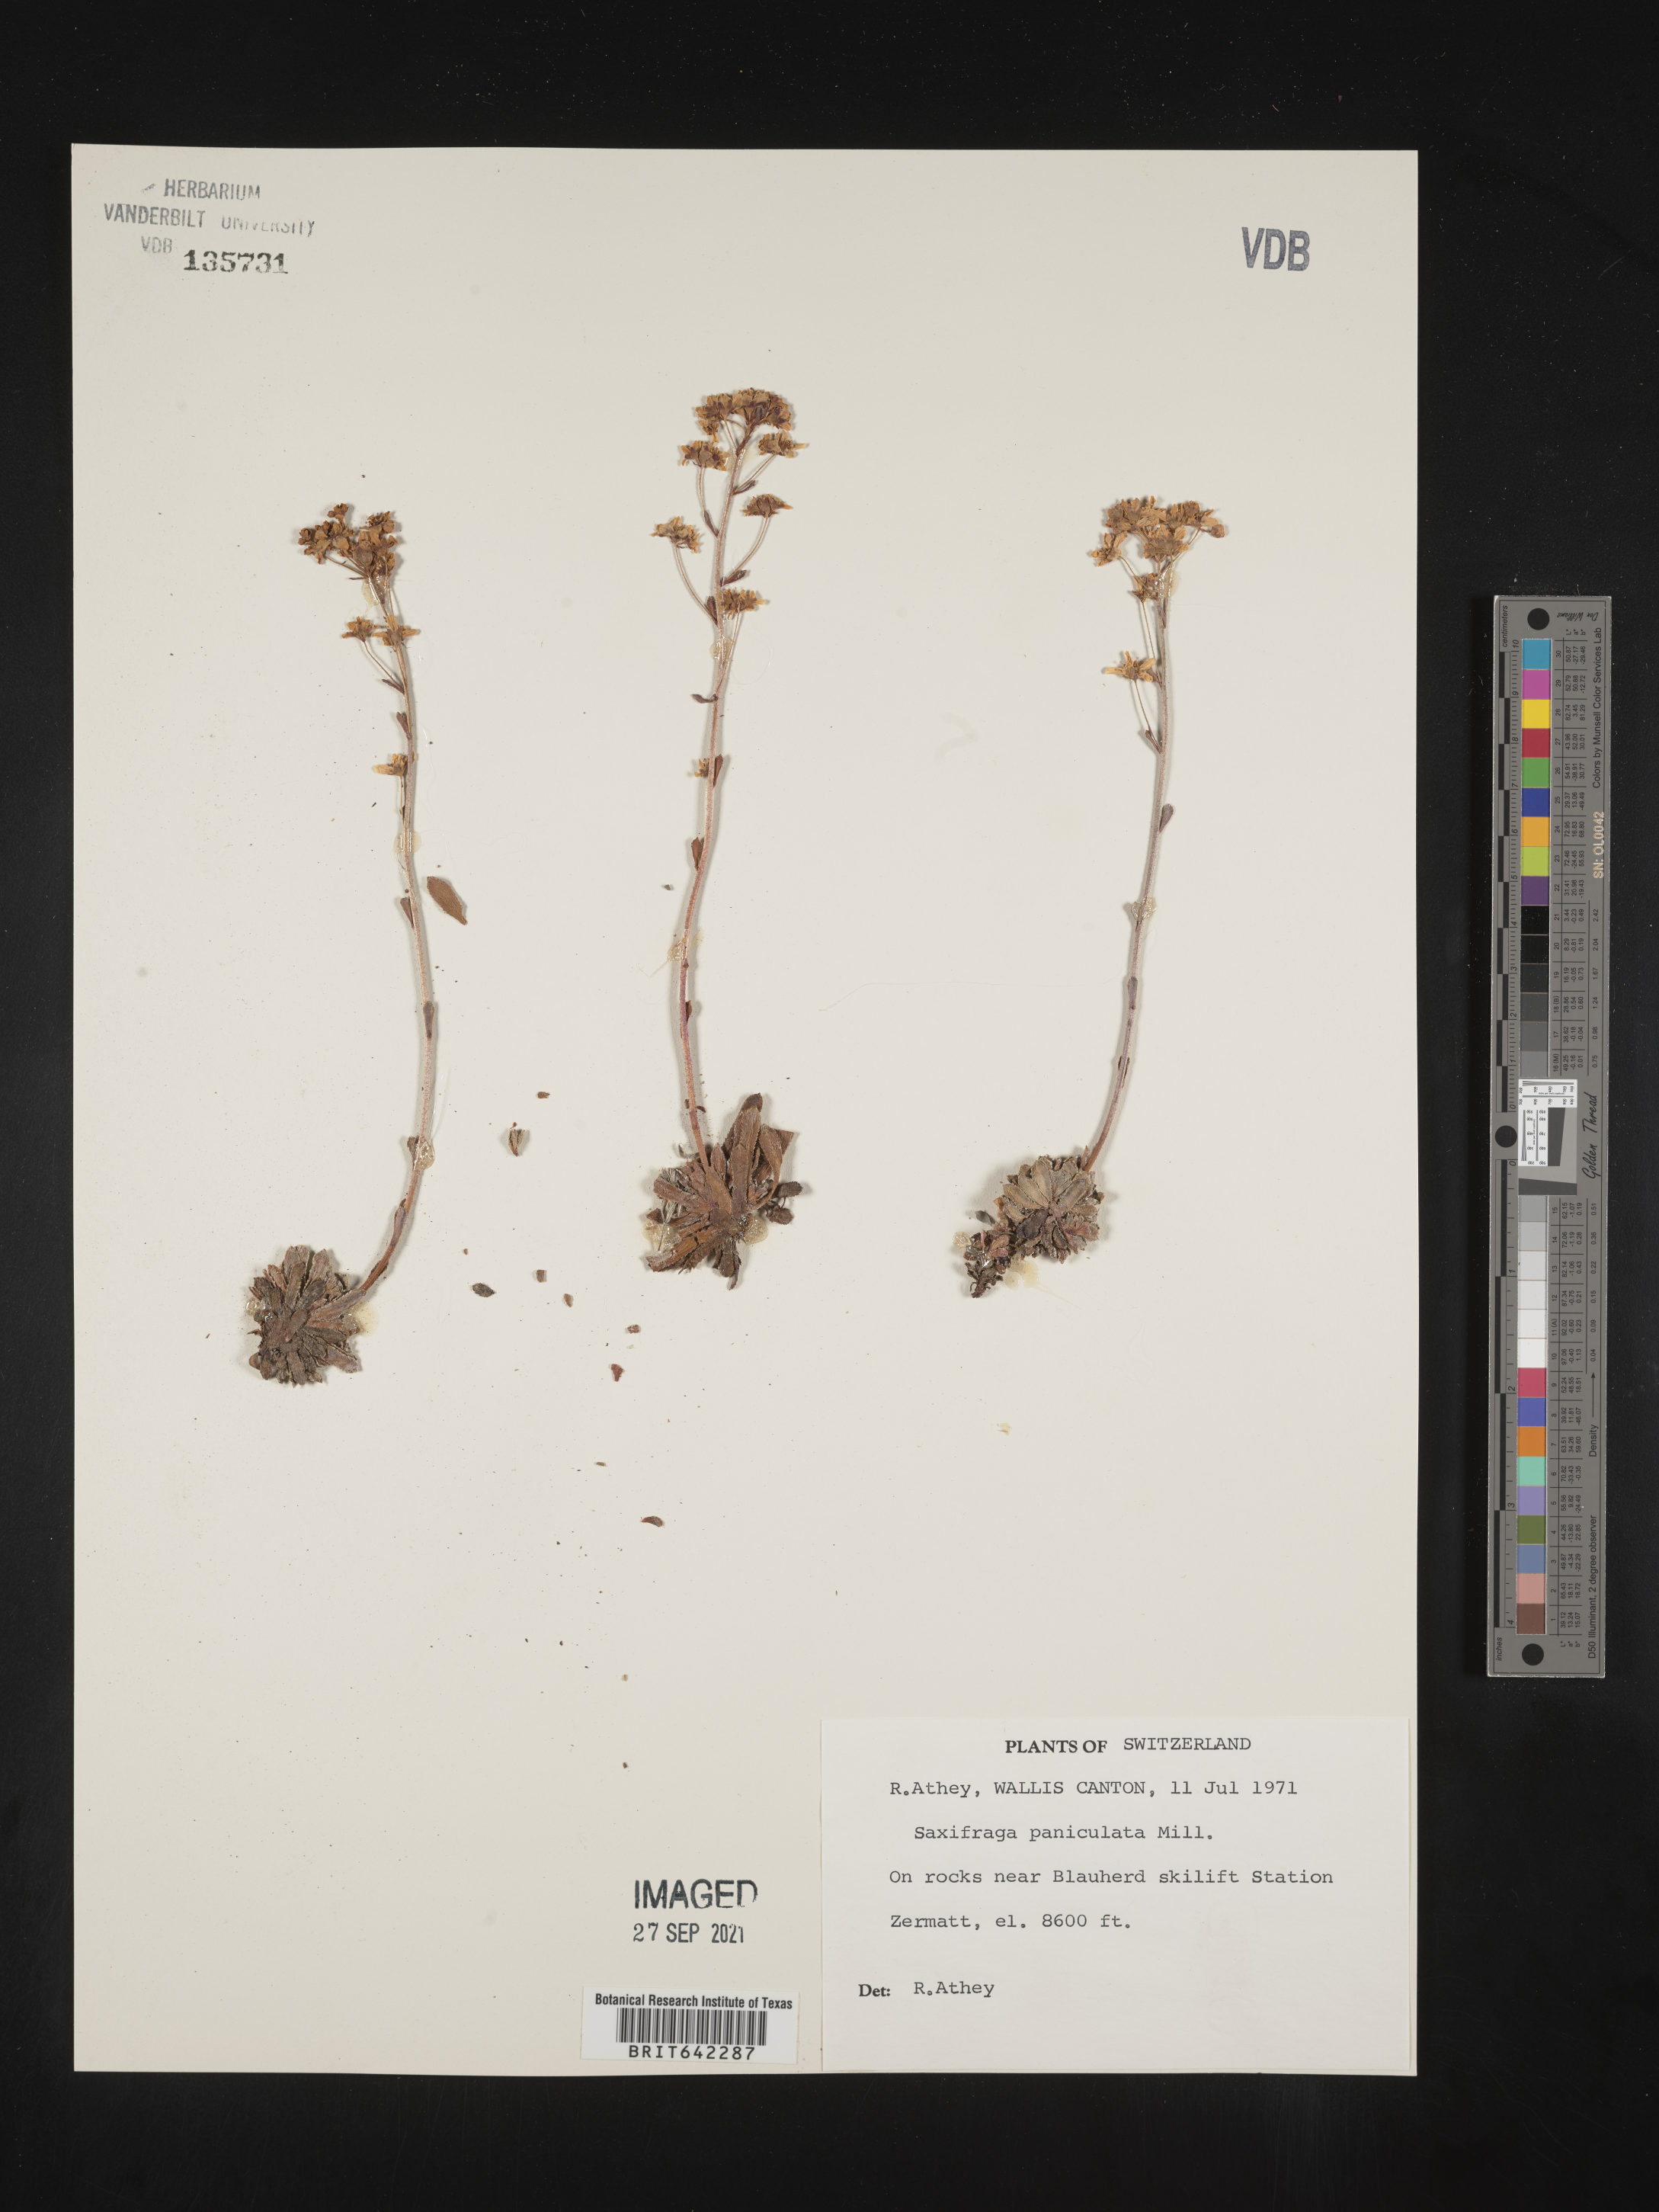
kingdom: Plantae
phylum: Tracheophyta
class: Magnoliopsida
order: Saxifragales
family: Saxifragaceae
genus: Saxifraga
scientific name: Saxifraga
